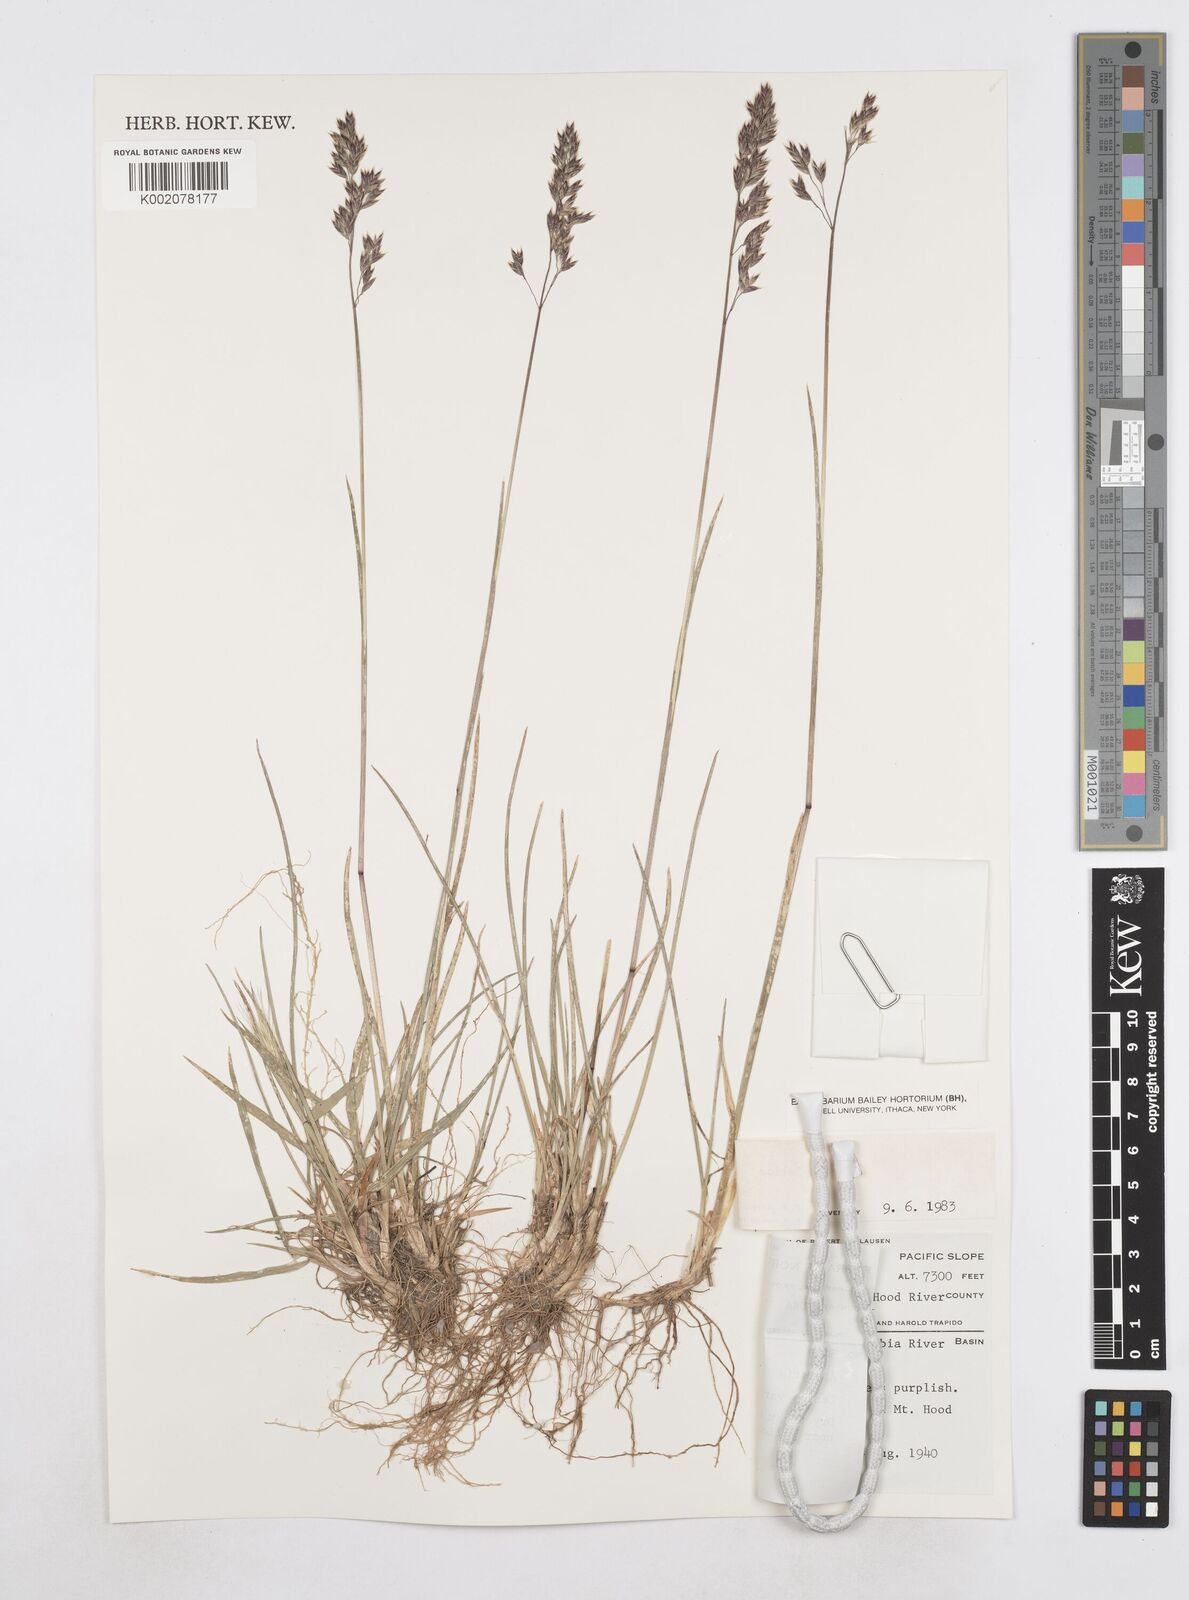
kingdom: Plantae
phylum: Tracheophyta
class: Liliopsida
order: Poales
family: Poaceae
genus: Poa
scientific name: Poa
